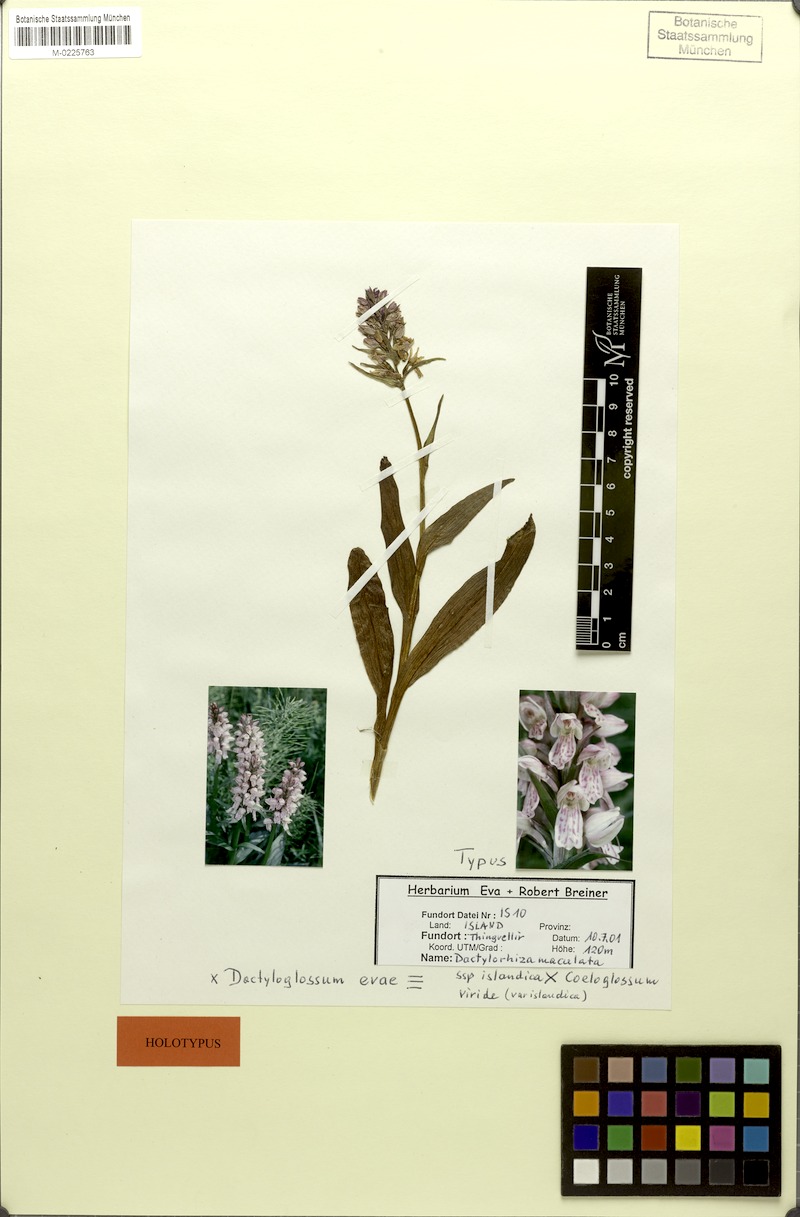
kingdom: Plantae
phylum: Tracheophyta
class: Liliopsida
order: Asparagales
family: Orchidaceae
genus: Dactylorhiza
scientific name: Dactylorhiza conigera
